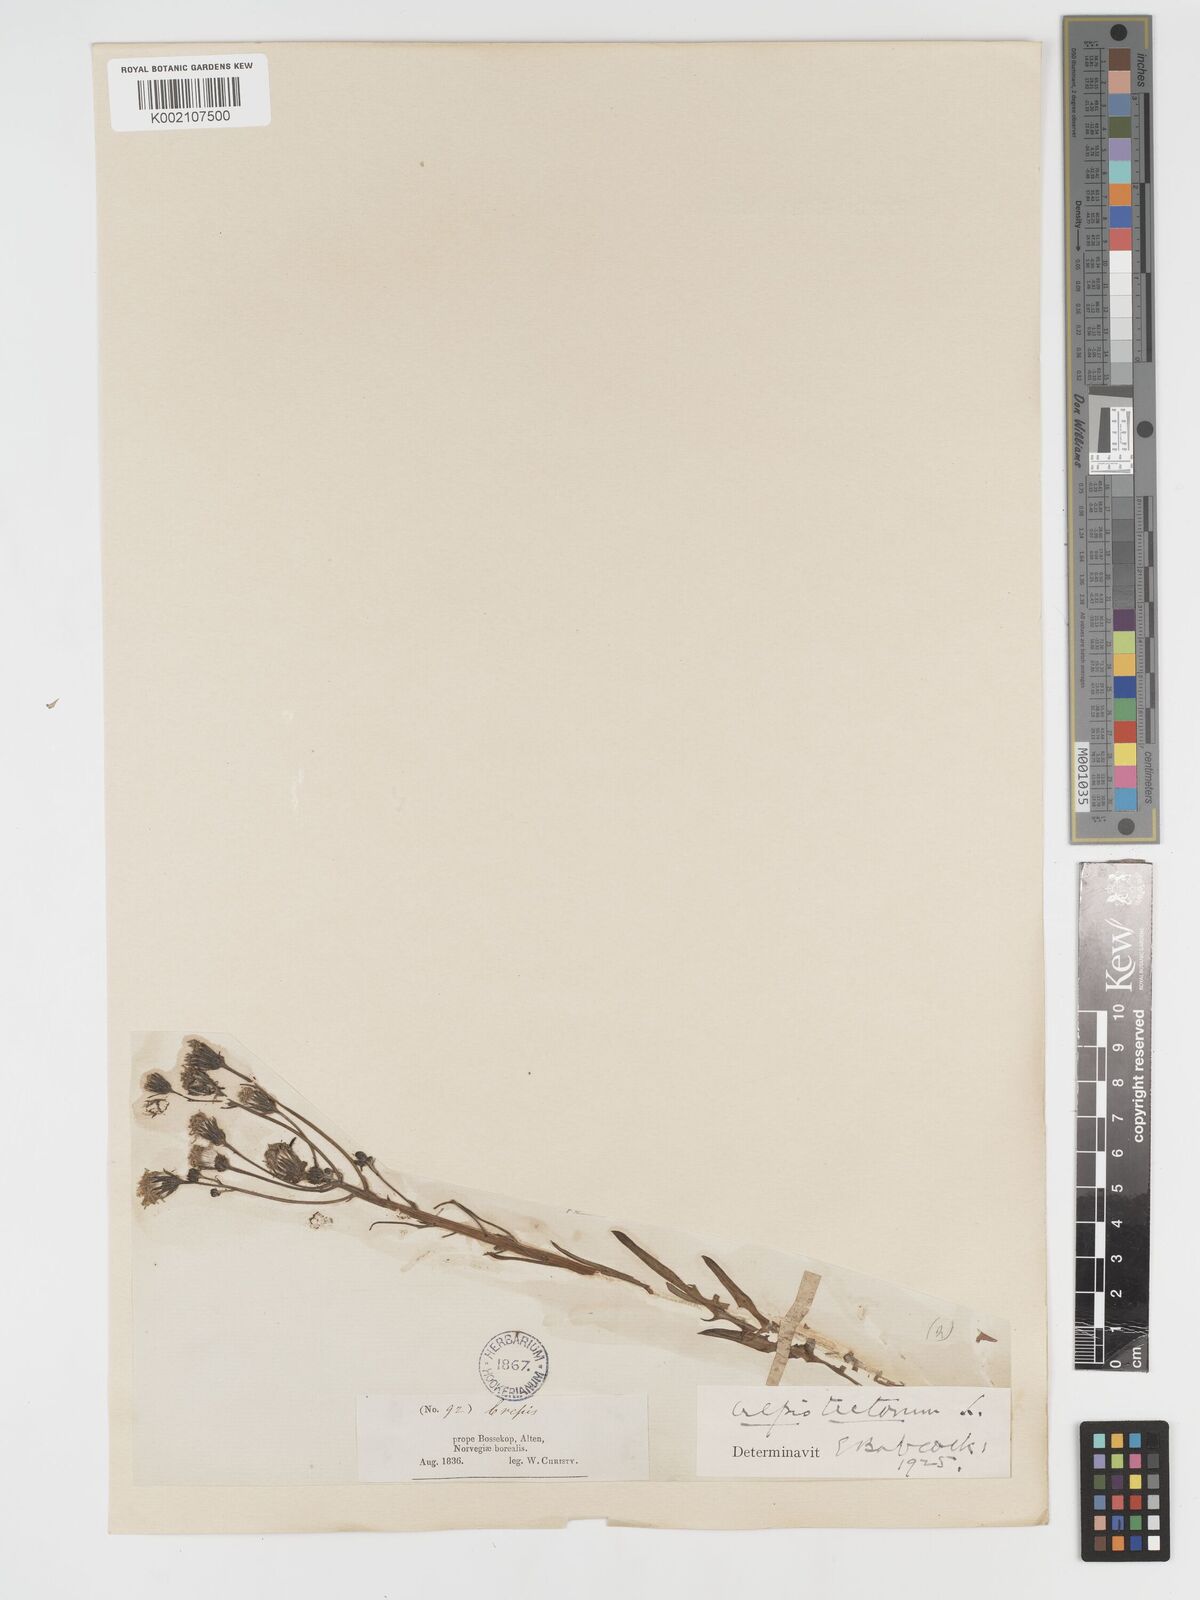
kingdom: Plantae
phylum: Tracheophyta
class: Magnoliopsida
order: Asterales
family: Asteraceae
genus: Crepis
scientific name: Crepis tectorum
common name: Narrow-leaved hawk's-beard
